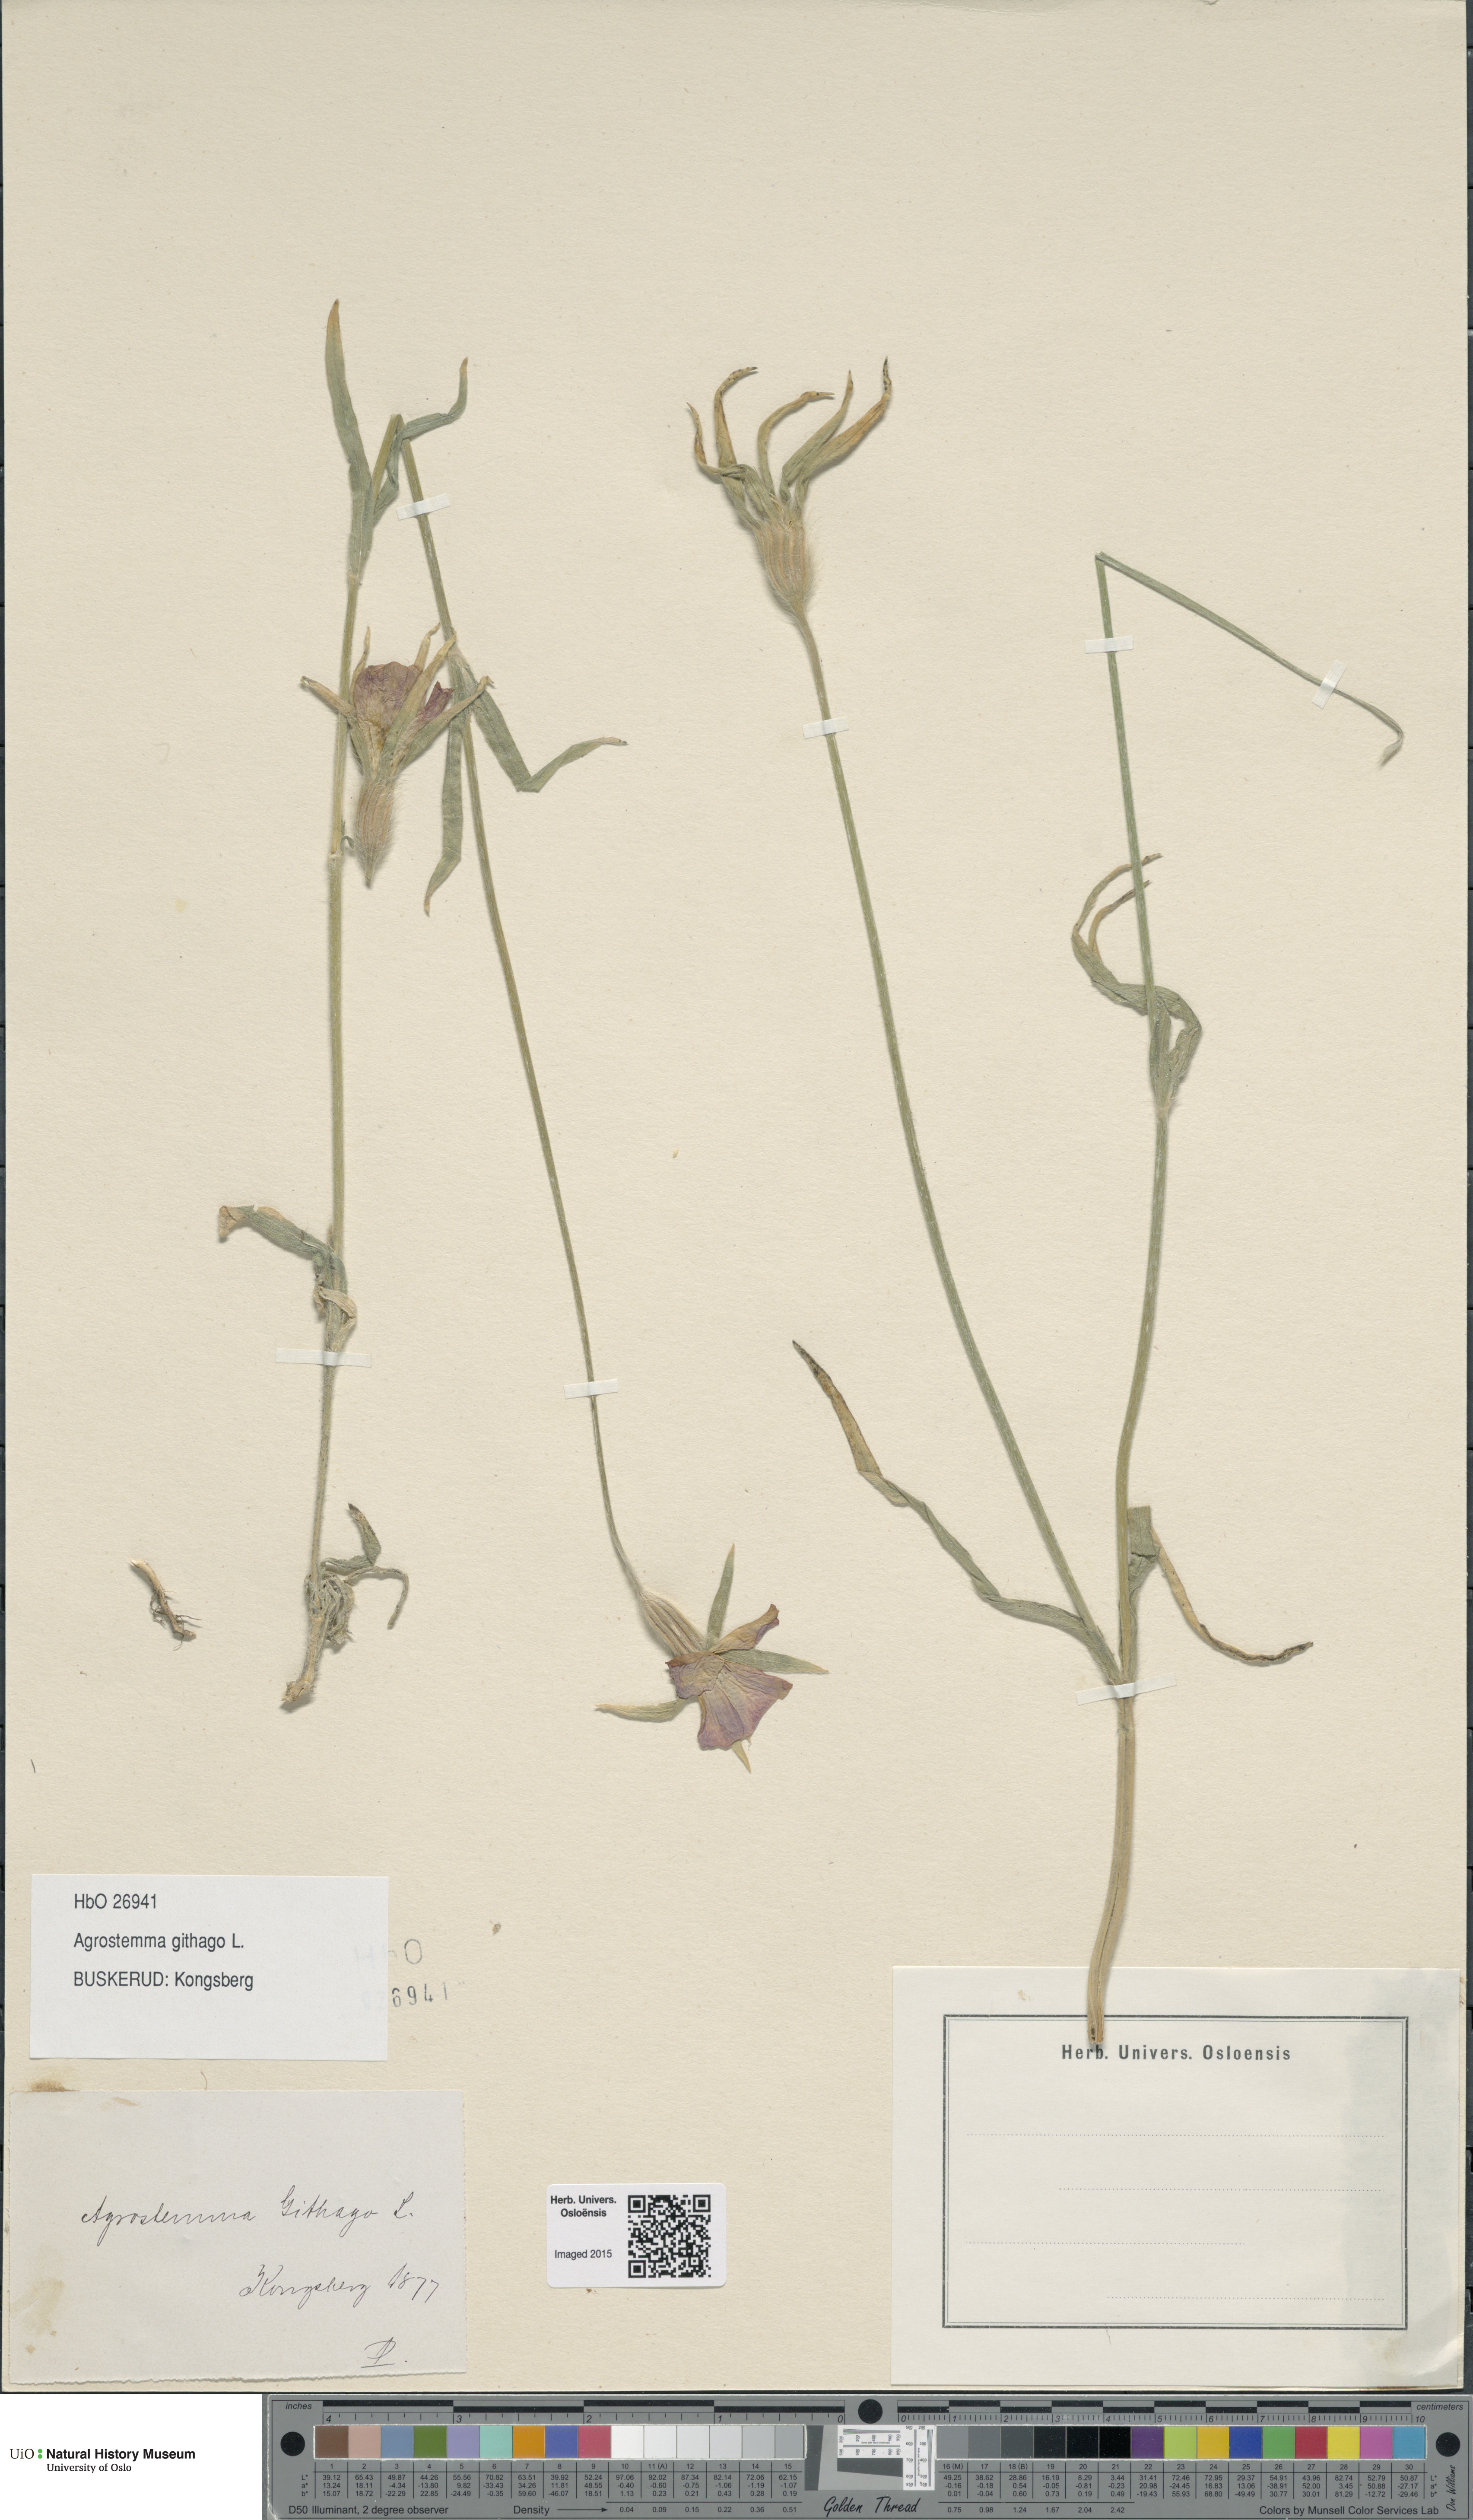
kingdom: Plantae
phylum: Tracheophyta
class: Magnoliopsida
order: Caryophyllales
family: Caryophyllaceae
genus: Agrostemma
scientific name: Agrostemma githago
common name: Common corncockle
